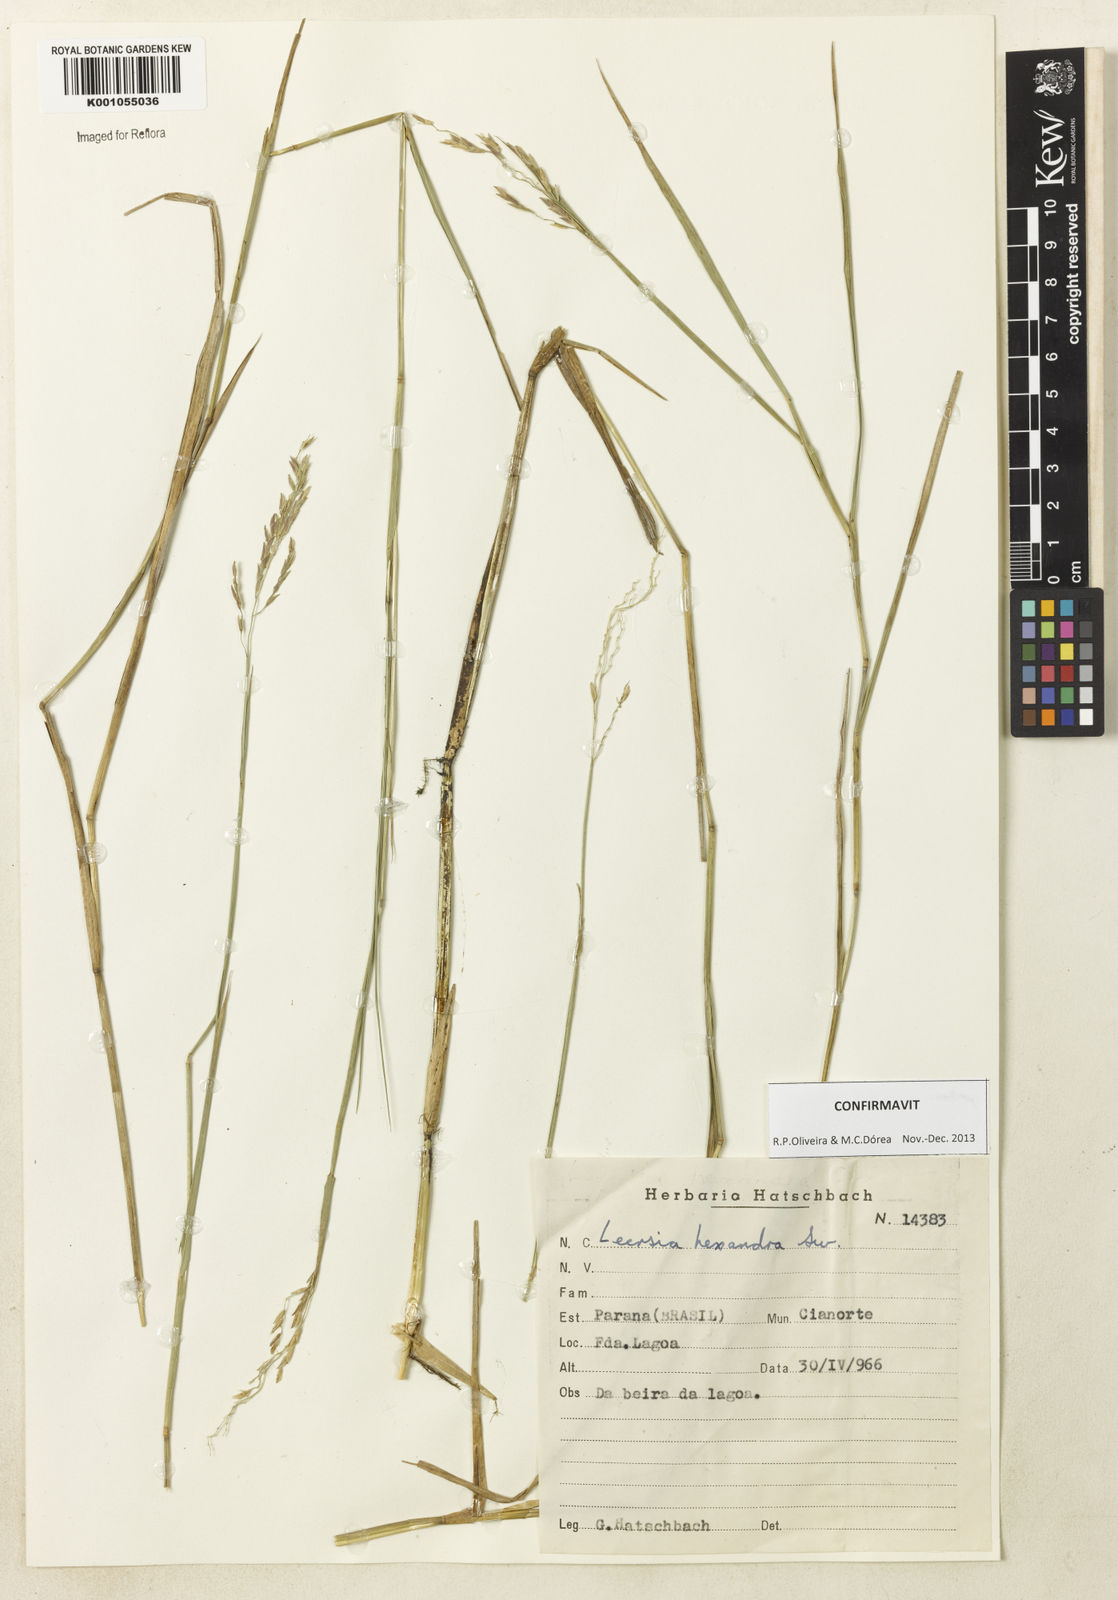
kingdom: Plantae
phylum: Tracheophyta
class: Liliopsida
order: Poales
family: Poaceae
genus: Leersia
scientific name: Leersia hexandra
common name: Southern cut grass
